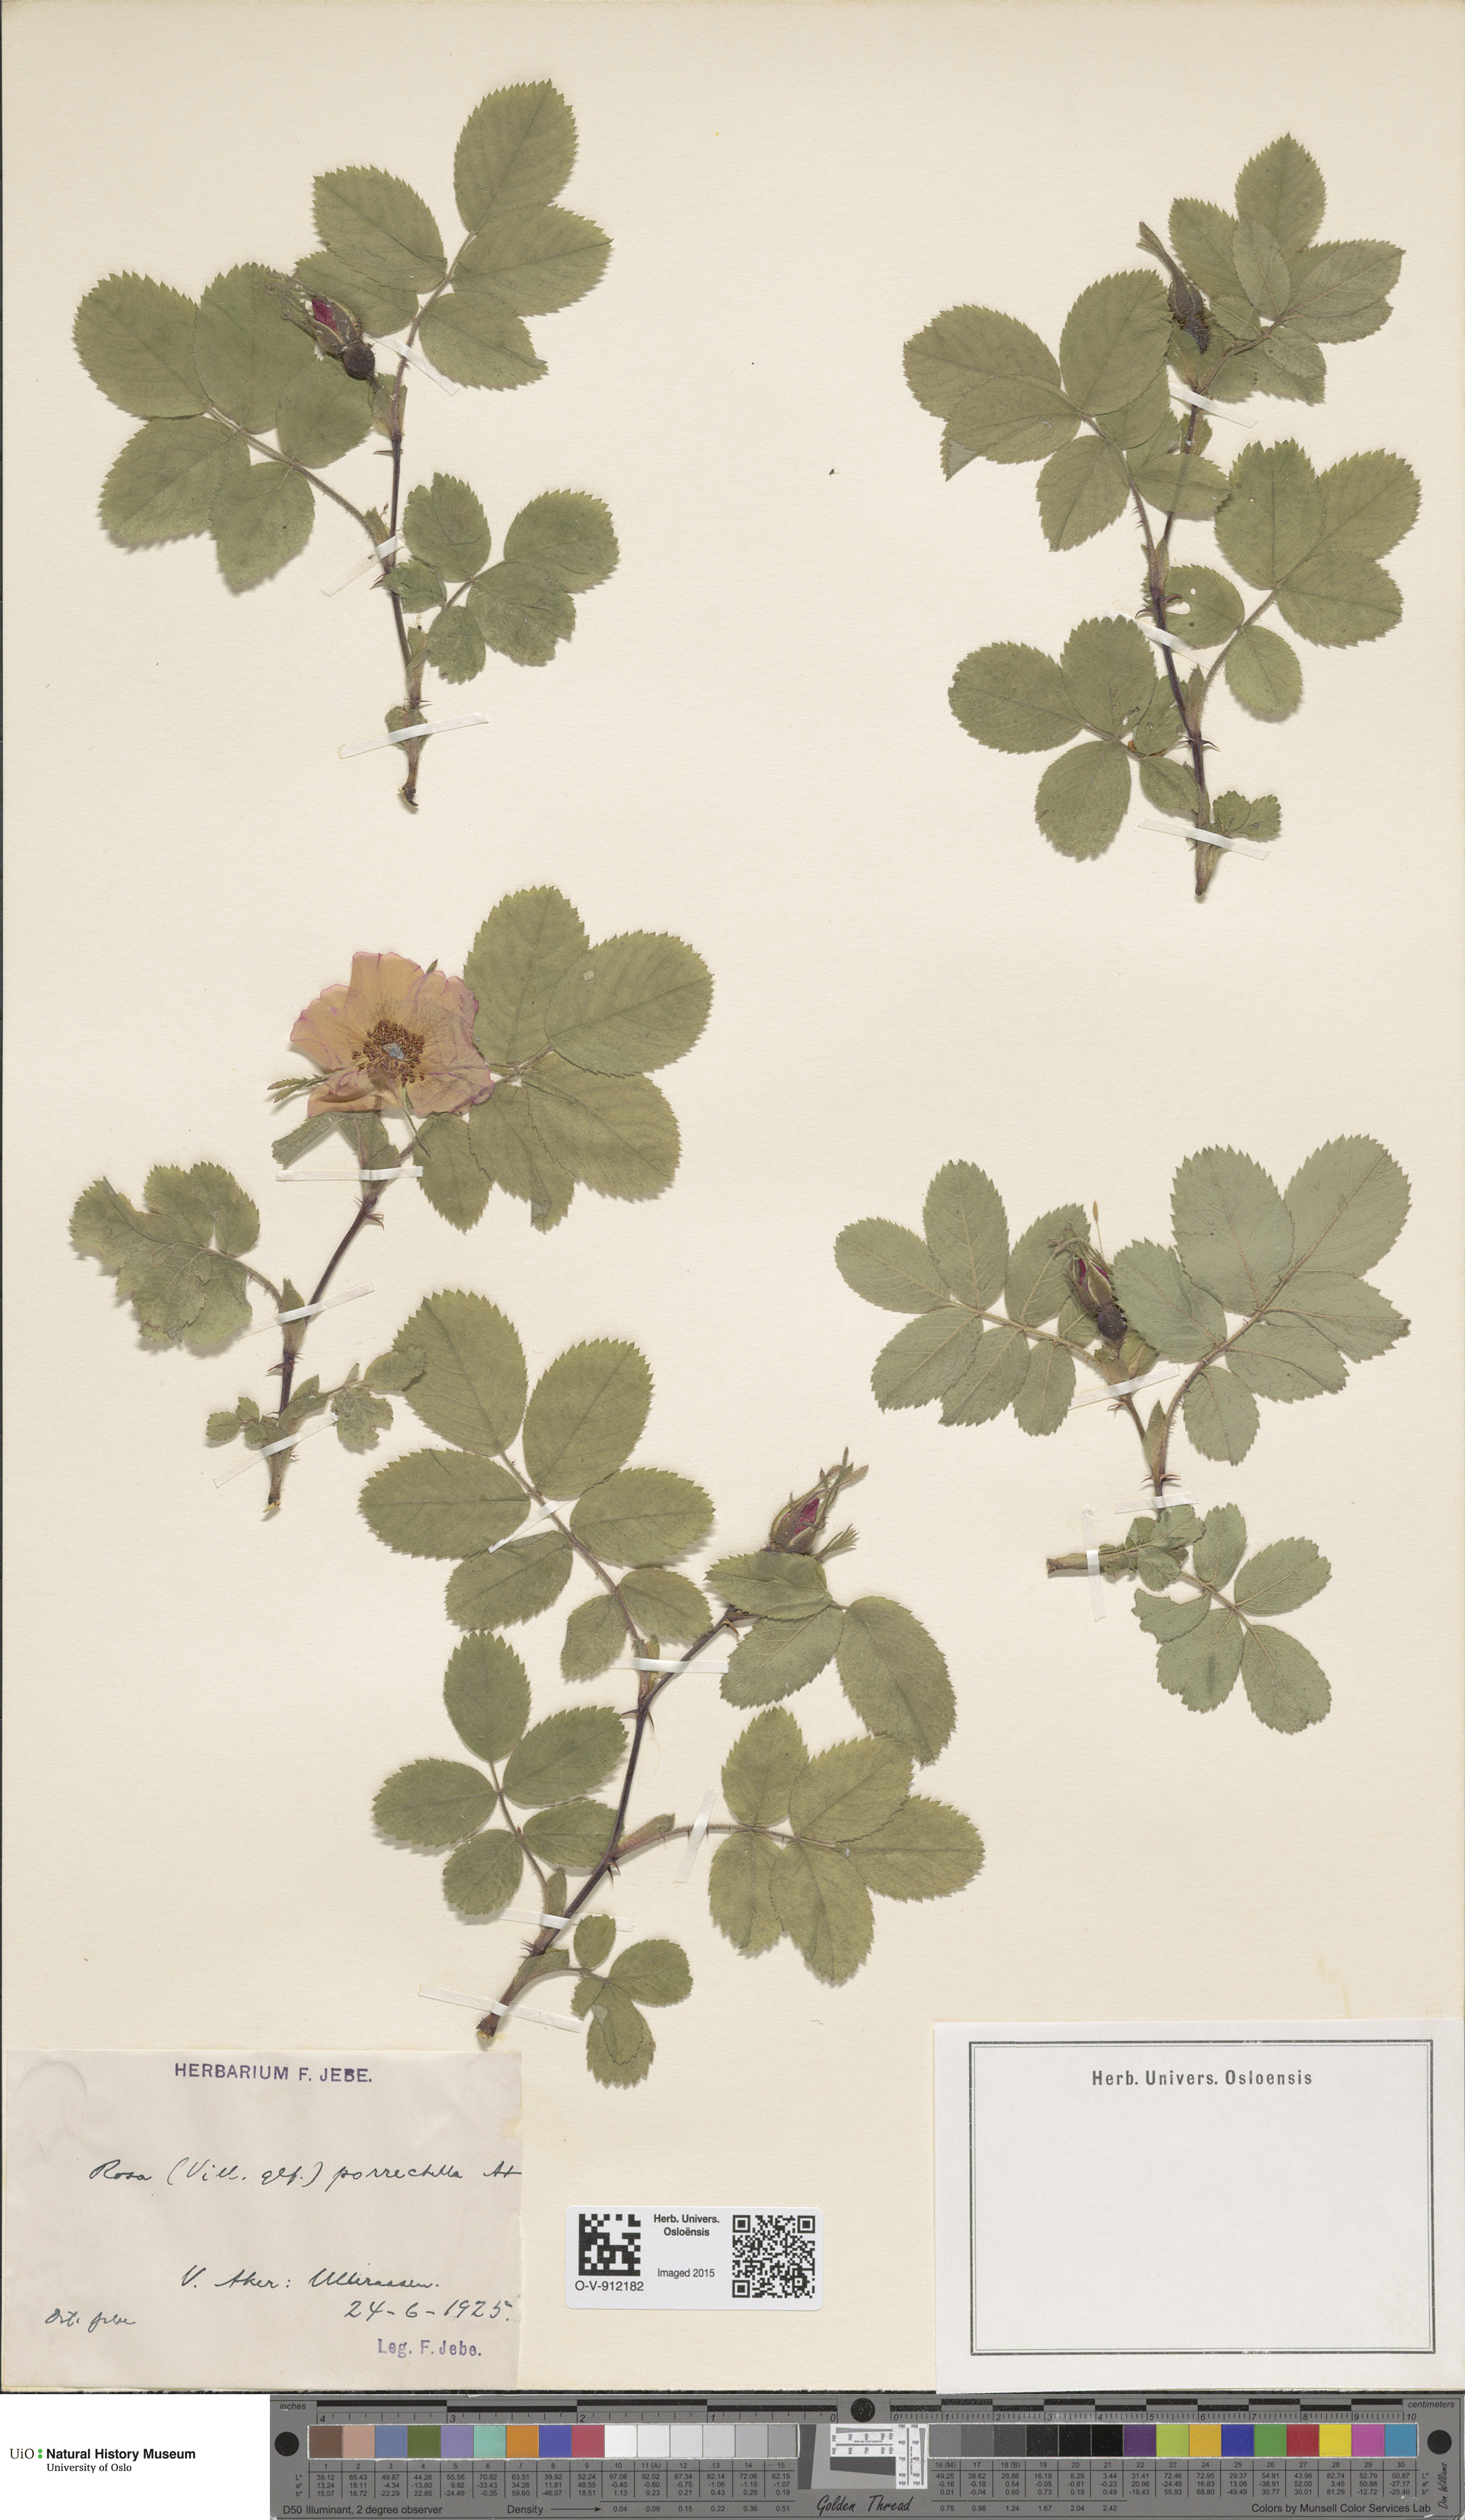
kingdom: Plantae
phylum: Tracheophyta
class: Magnoliopsida
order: Rosales
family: Rosaceae
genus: Rosa
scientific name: Rosa mollis
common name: Rose
